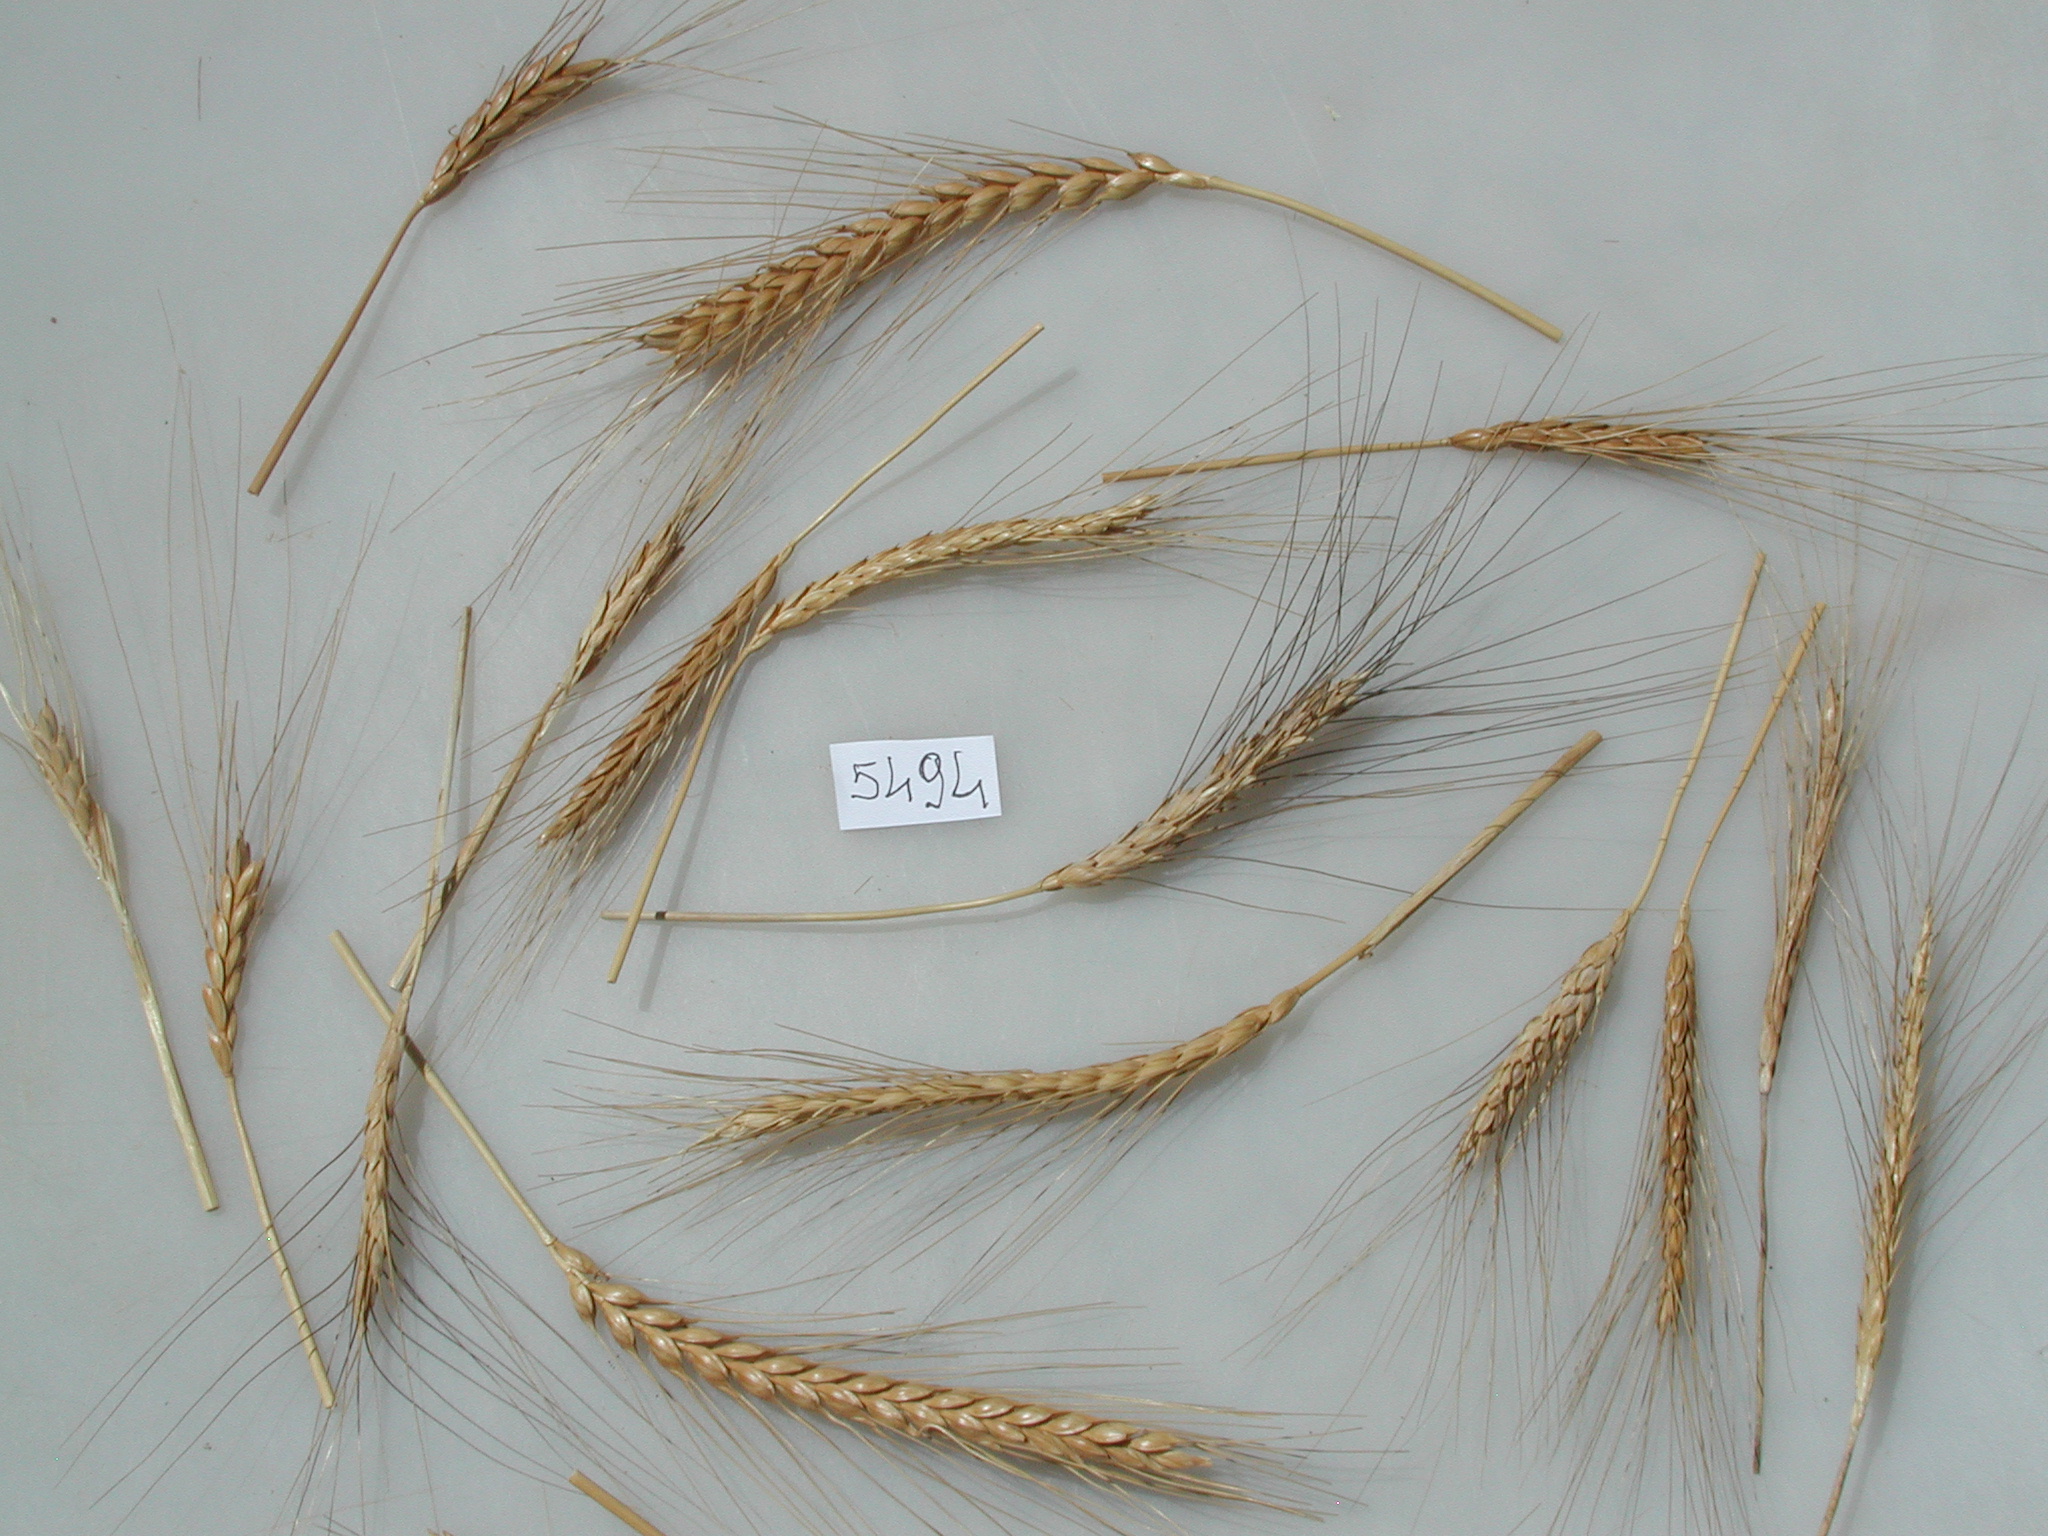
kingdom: Plantae
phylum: Tracheophyta
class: Liliopsida
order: Poales
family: Poaceae
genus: Triticum
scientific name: Triticum turgidum
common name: Emmer Wheat
